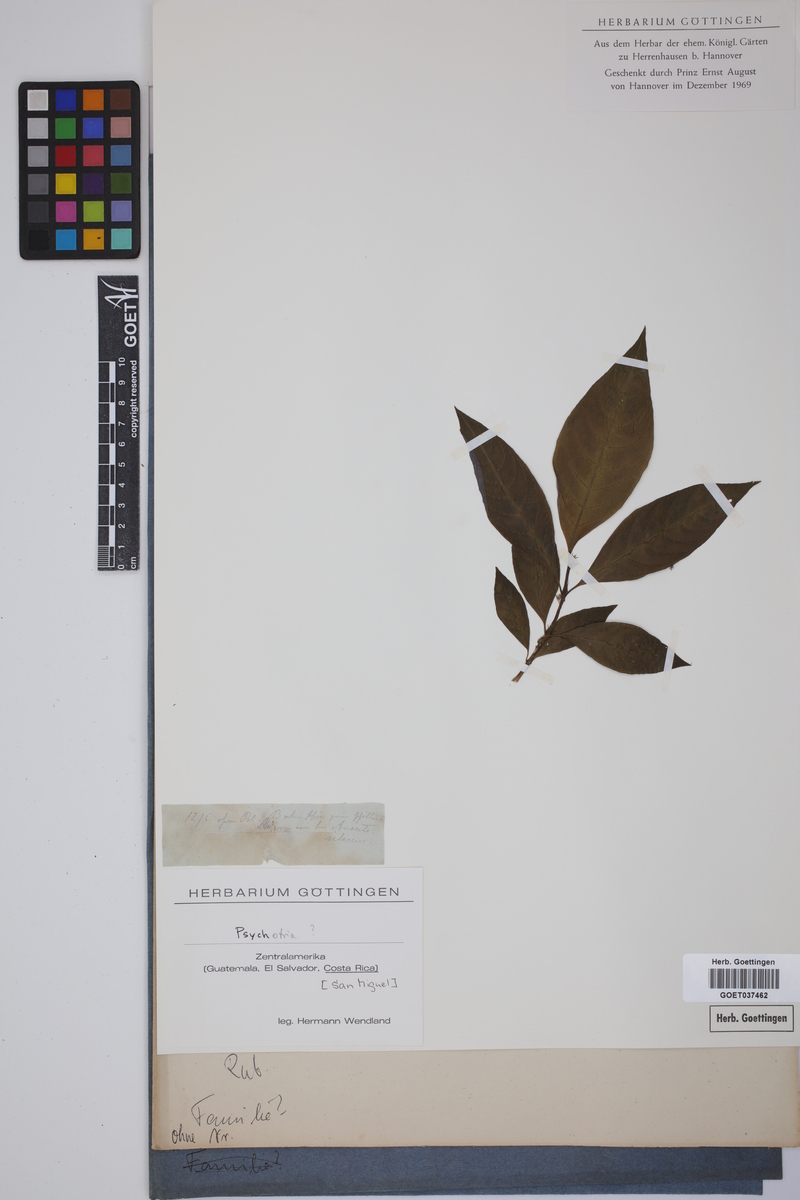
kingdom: Plantae
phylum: Tracheophyta
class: Magnoliopsida
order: Gentianales
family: Rubiaceae
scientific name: Rubiaceae
